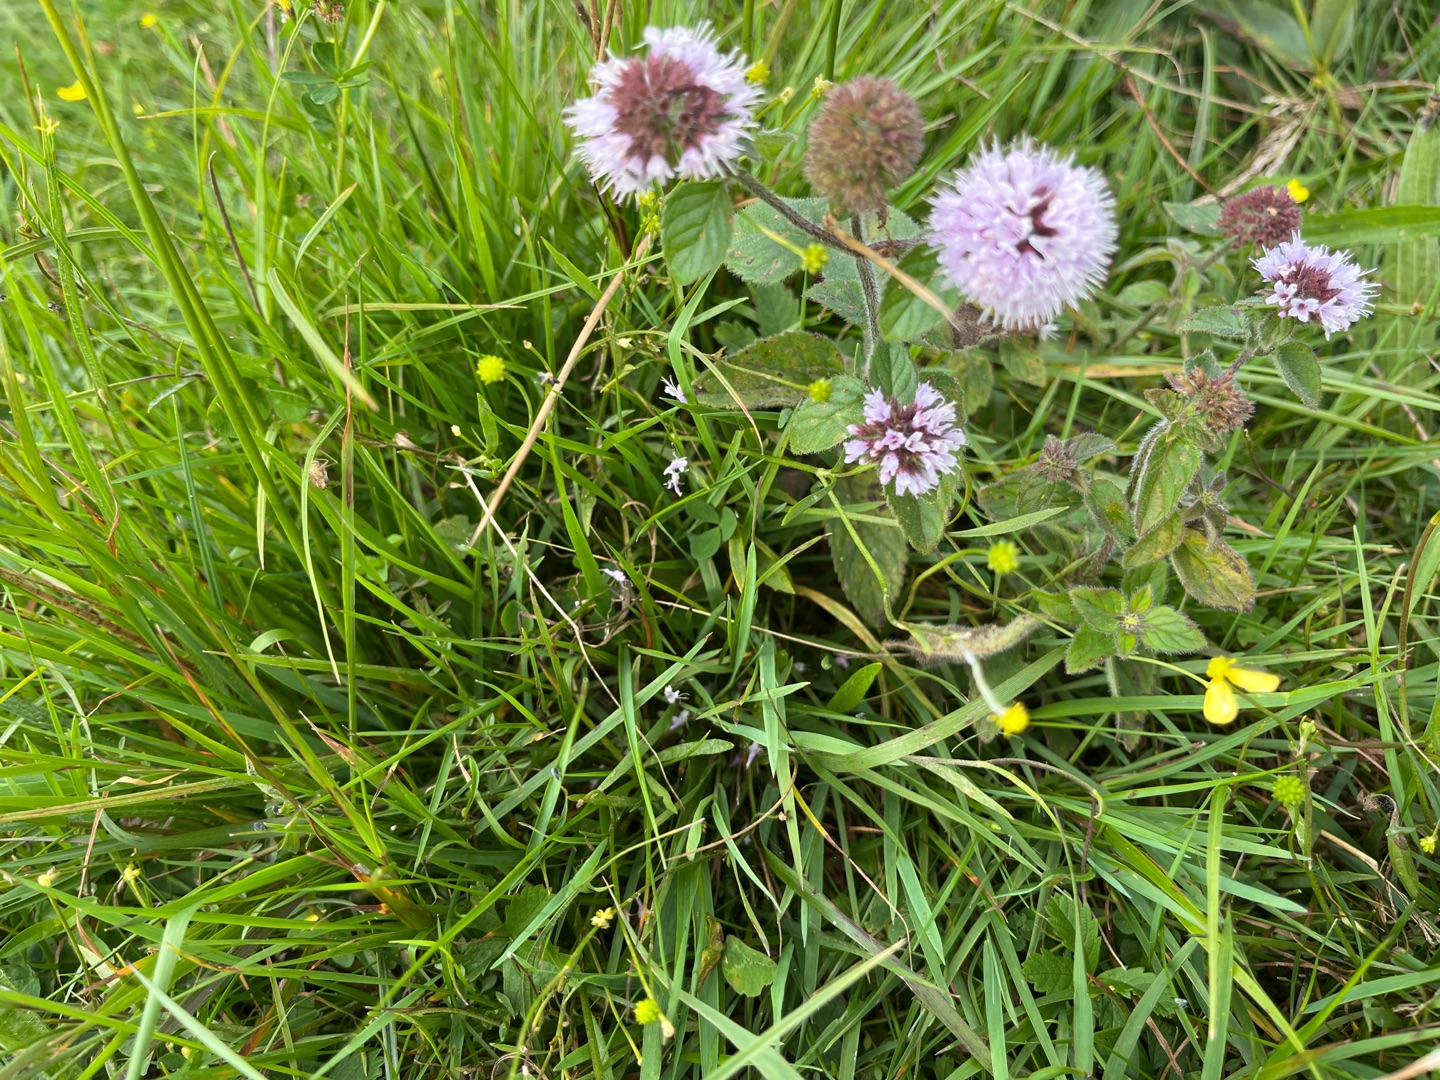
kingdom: Plantae
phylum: Tracheophyta
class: Magnoliopsida
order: Lamiales
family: Lamiaceae
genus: Mentha
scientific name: Mentha aquatica
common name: Vand-mynte
